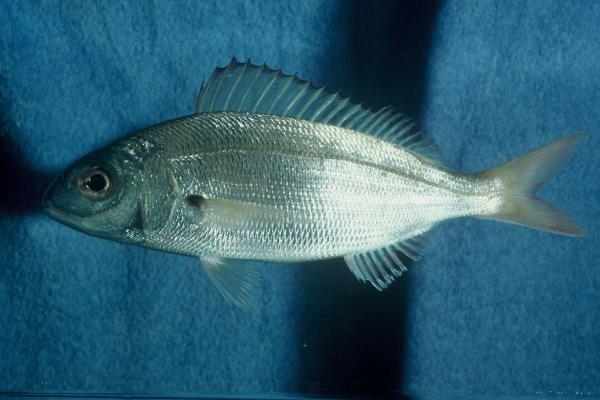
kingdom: Animalia
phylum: Chordata
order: Perciformes
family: Sparidae
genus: Pagellus
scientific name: Pagellus acarne
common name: Axillary sea-bream
